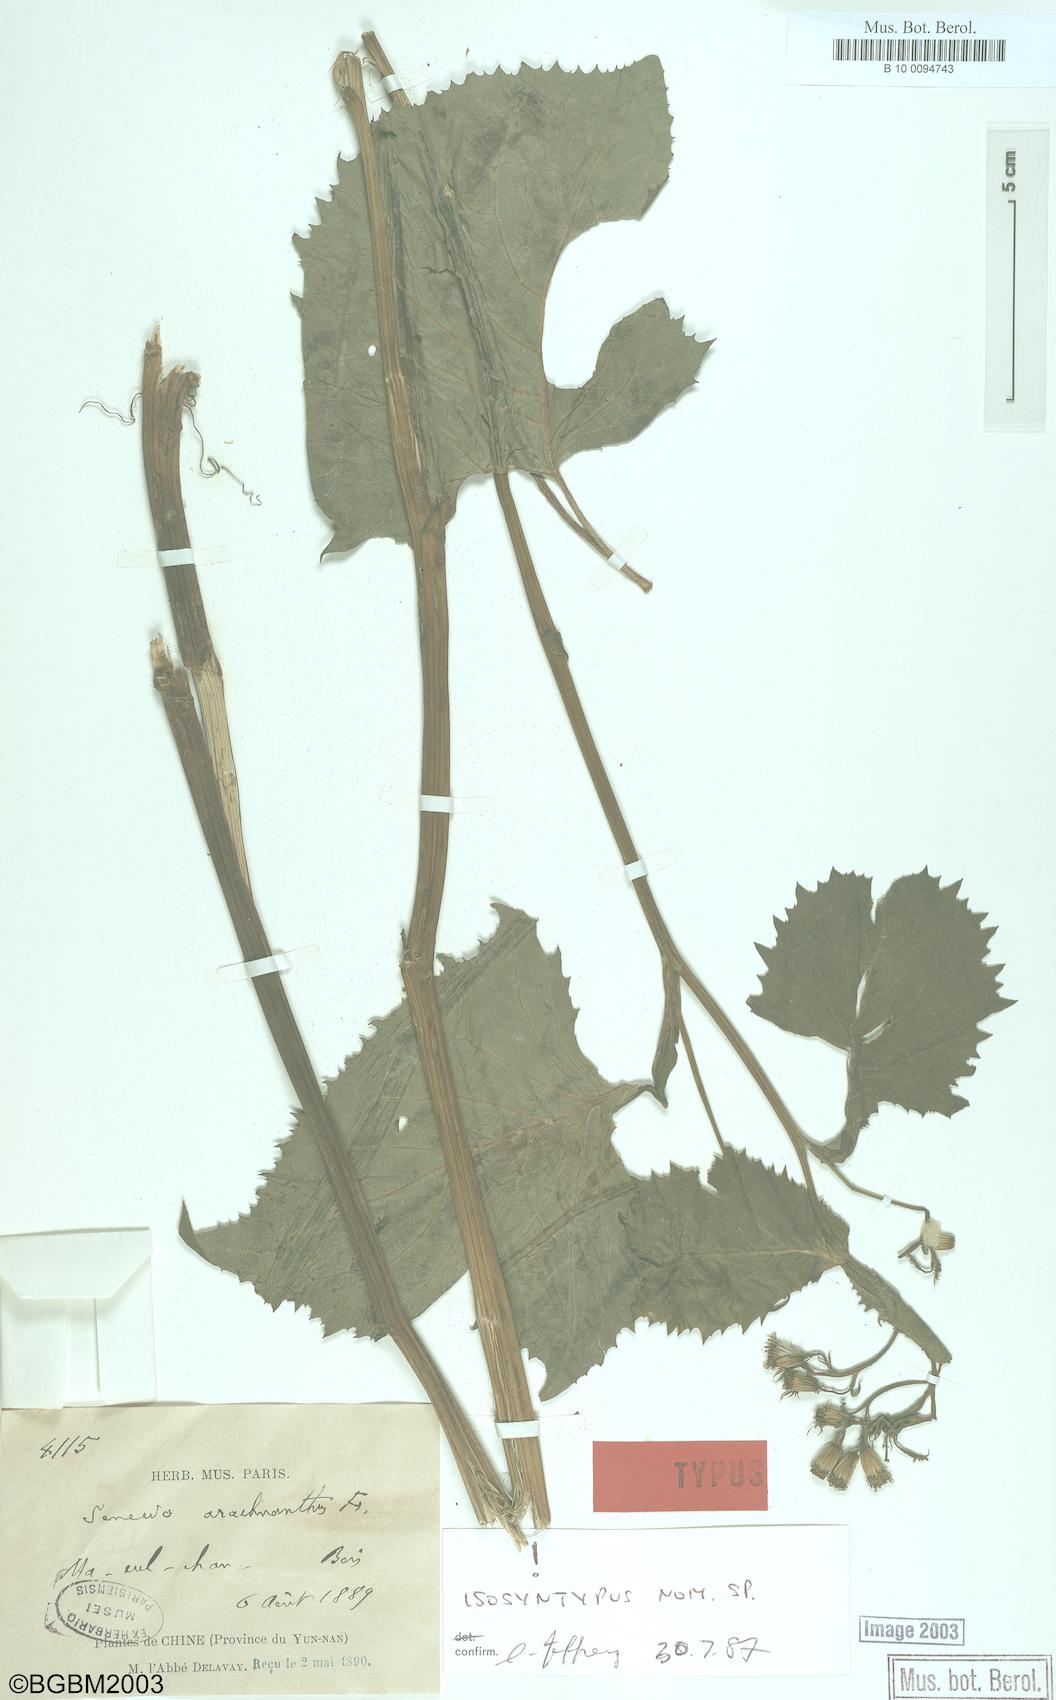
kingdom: Plantae
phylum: Tracheophyta
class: Magnoliopsida
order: Asterales
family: Asteraceae
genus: Senecio
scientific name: Senecio arachnanthus
